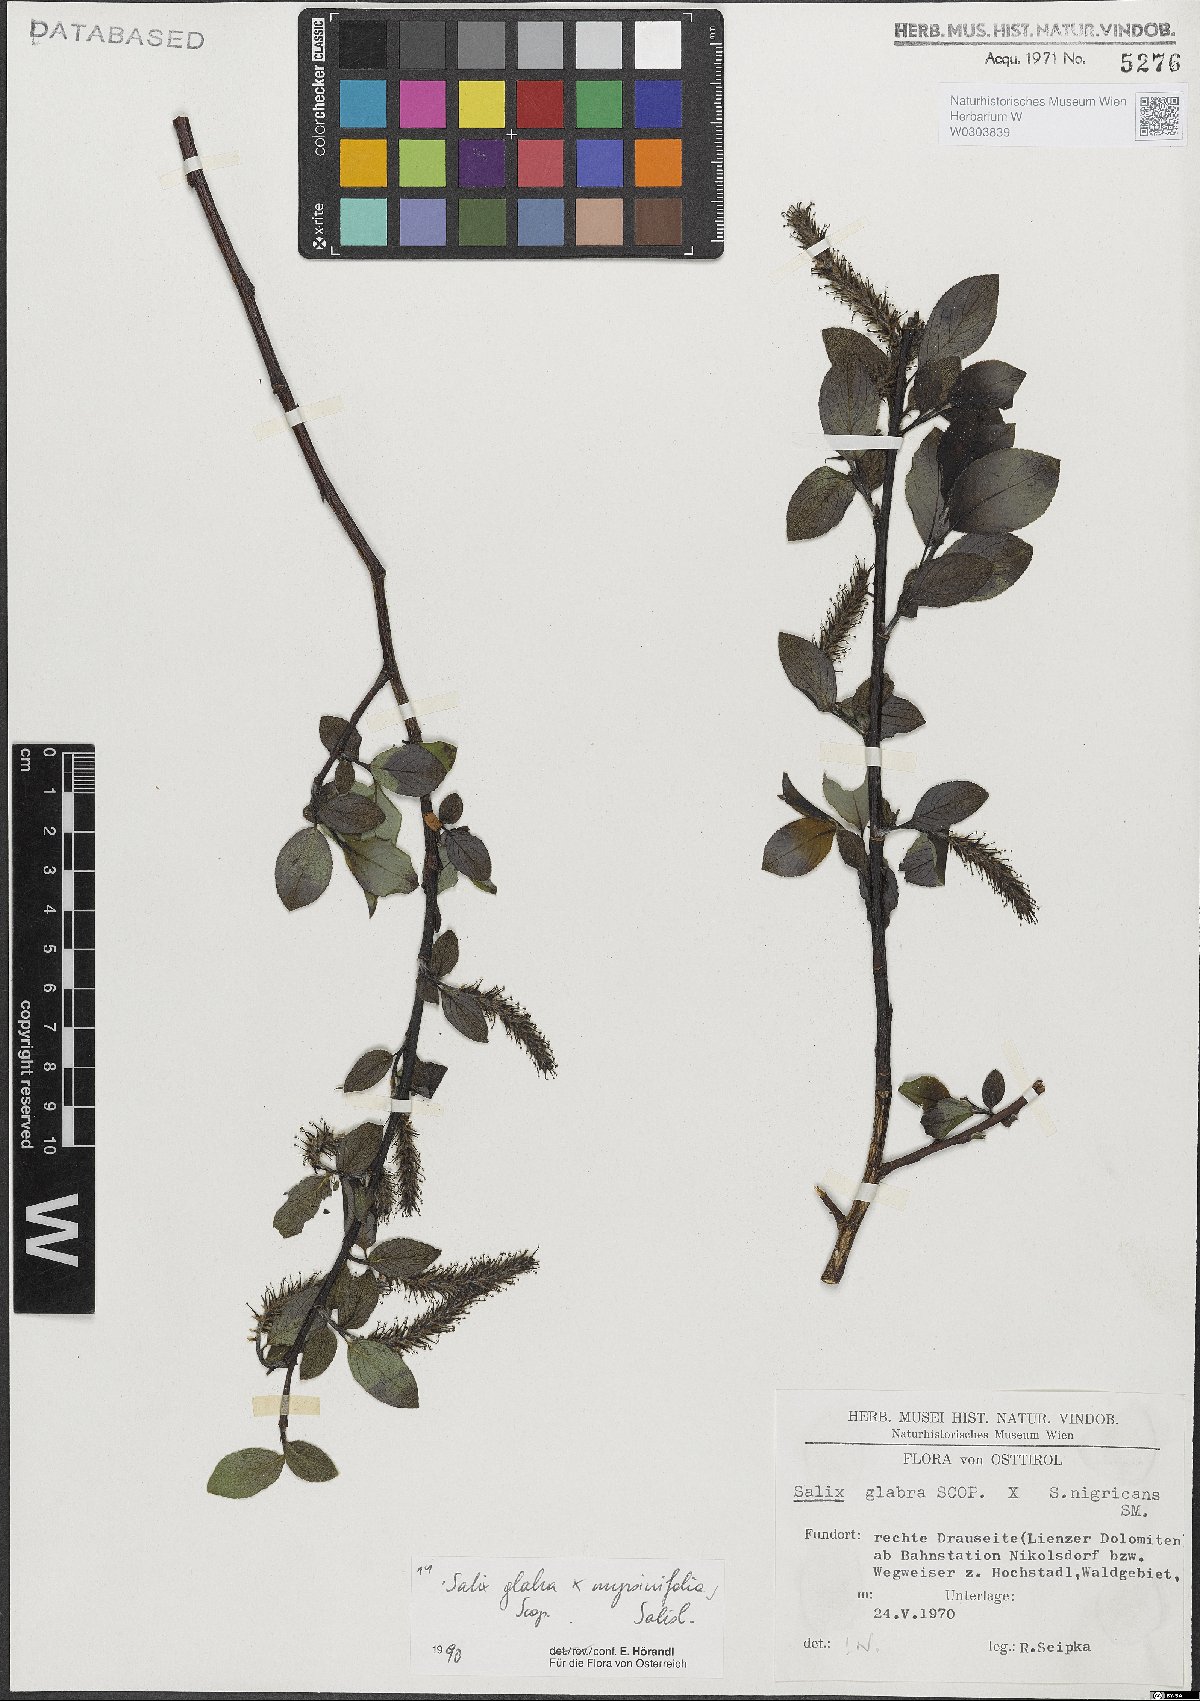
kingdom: Plantae
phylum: Tracheophyta
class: Magnoliopsida
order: Malpighiales
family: Salicaceae
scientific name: Salicaceae
